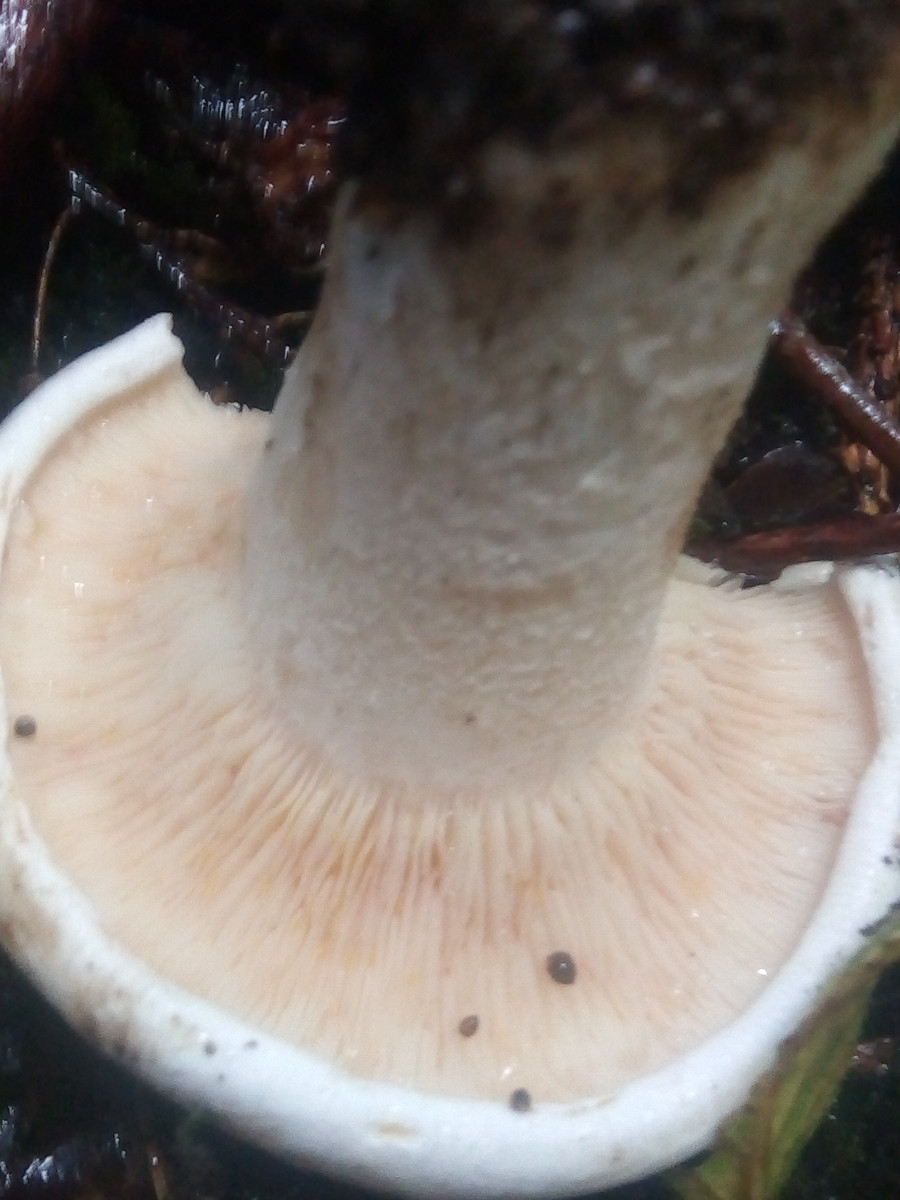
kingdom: Fungi
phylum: Basidiomycota
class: Agaricomycetes
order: Agaricales
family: Tricholomataceae
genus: Aspropaxillus
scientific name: Aspropaxillus giganteus
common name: kæmpe-tragtridderhat
